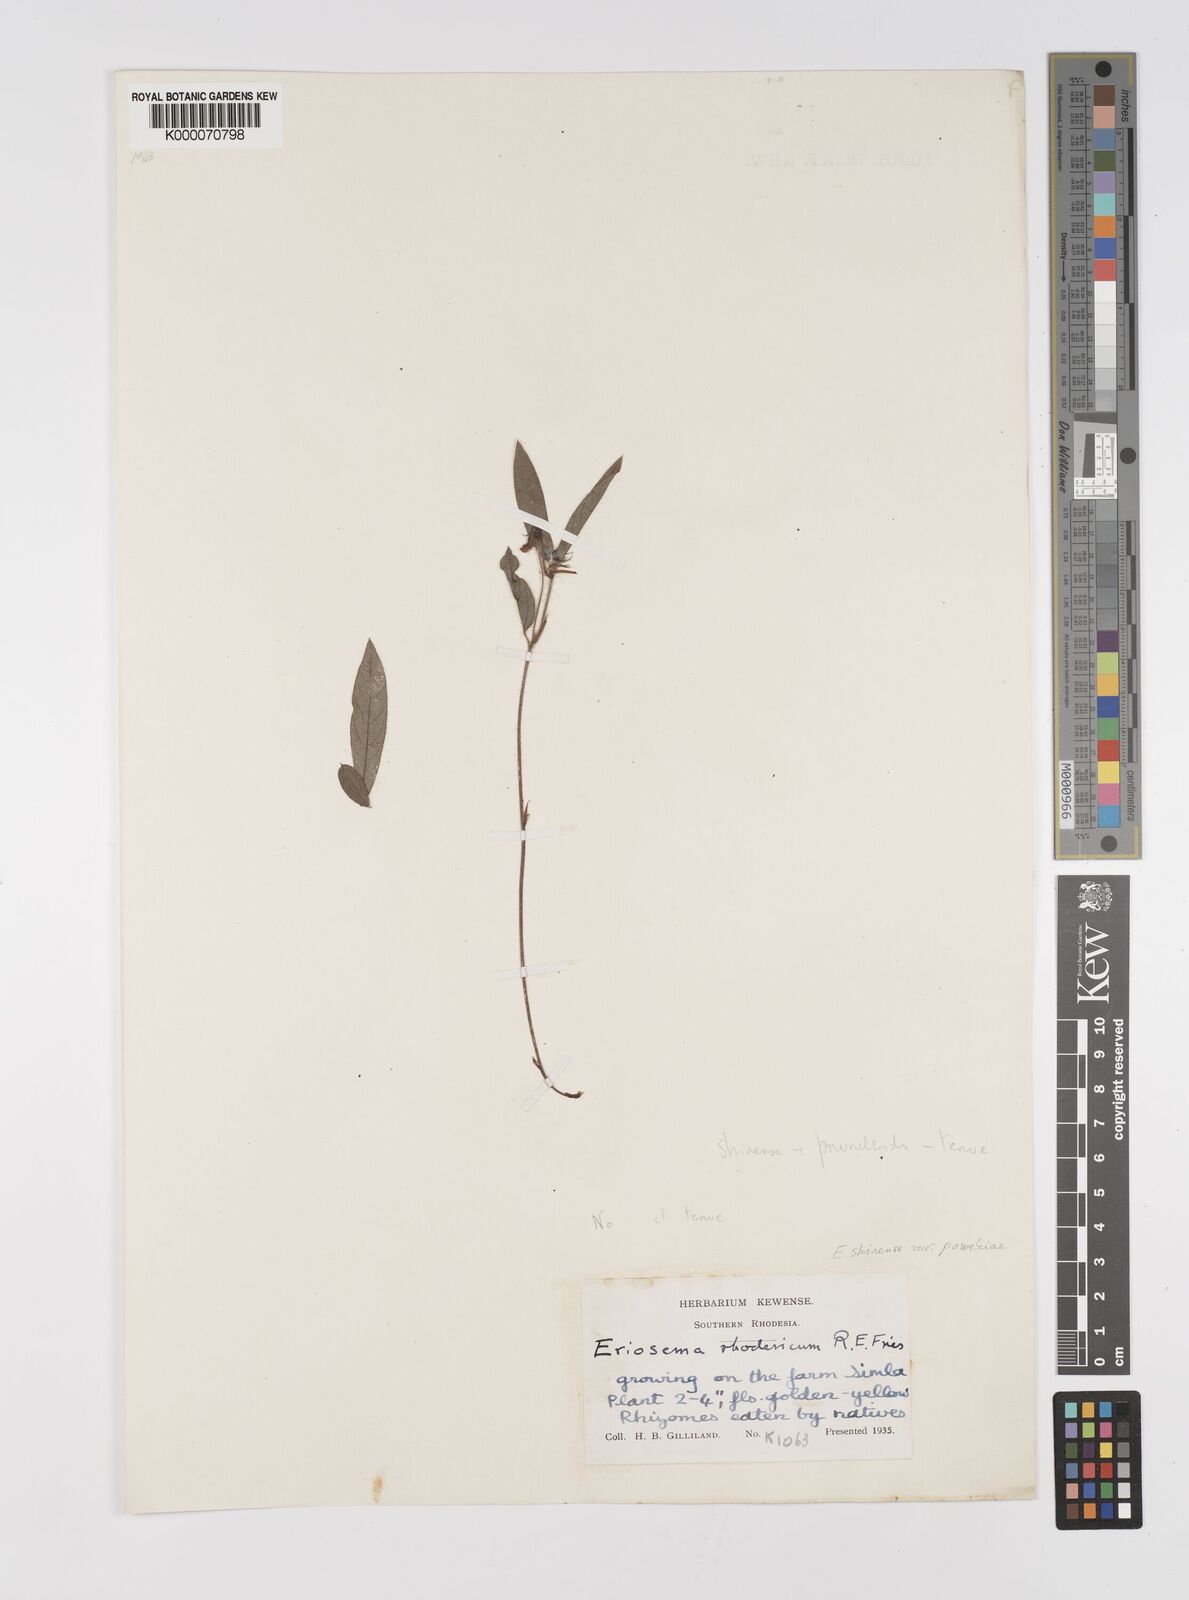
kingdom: Plantae
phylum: Tracheophyta
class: Magnoliopsida
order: Fabales
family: Fabaceae
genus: Eriosema
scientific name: Eriosema shirense
